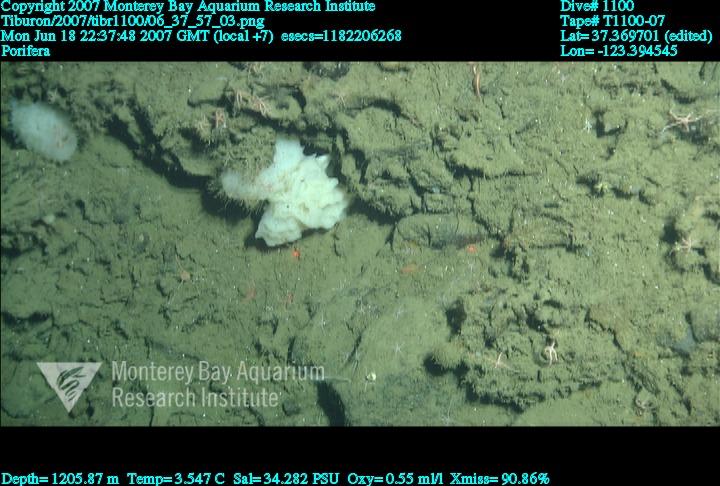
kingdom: Animalia
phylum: Porifera
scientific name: Porifera
